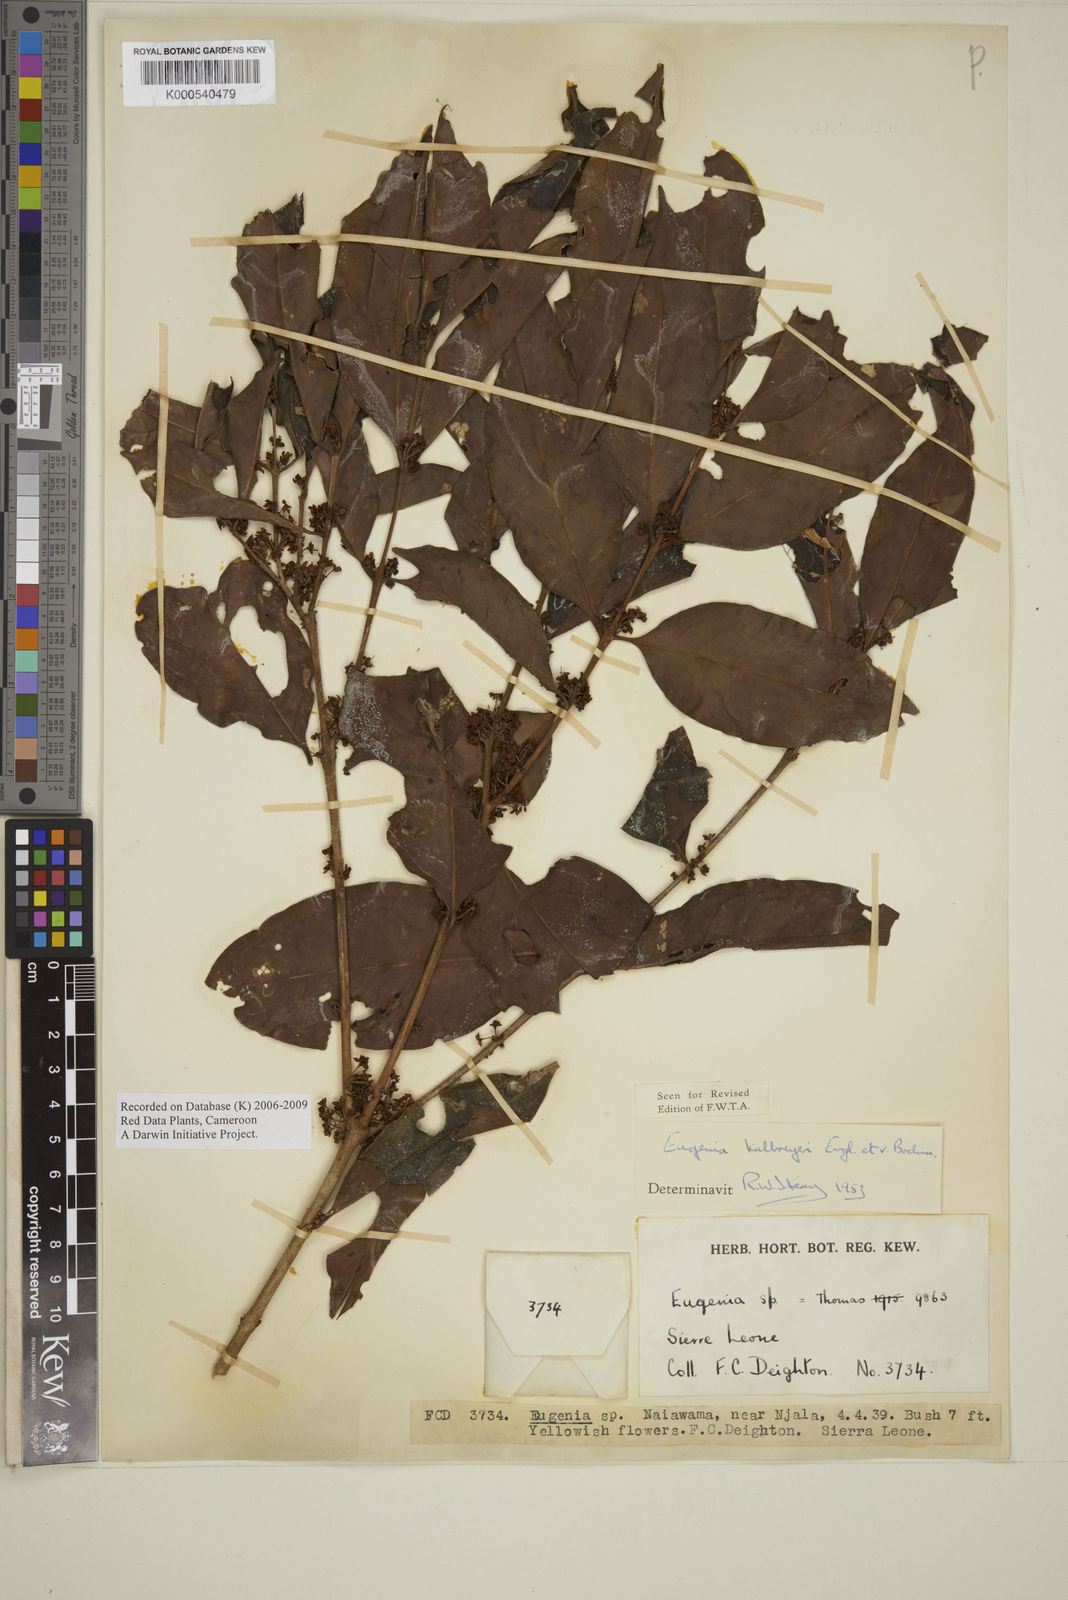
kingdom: Plantae
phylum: Tracheophyta
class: Magnoliopsida
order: Myrtales
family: Myrtaceae
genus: Eugenia
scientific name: Eugenia kalbreyeri
